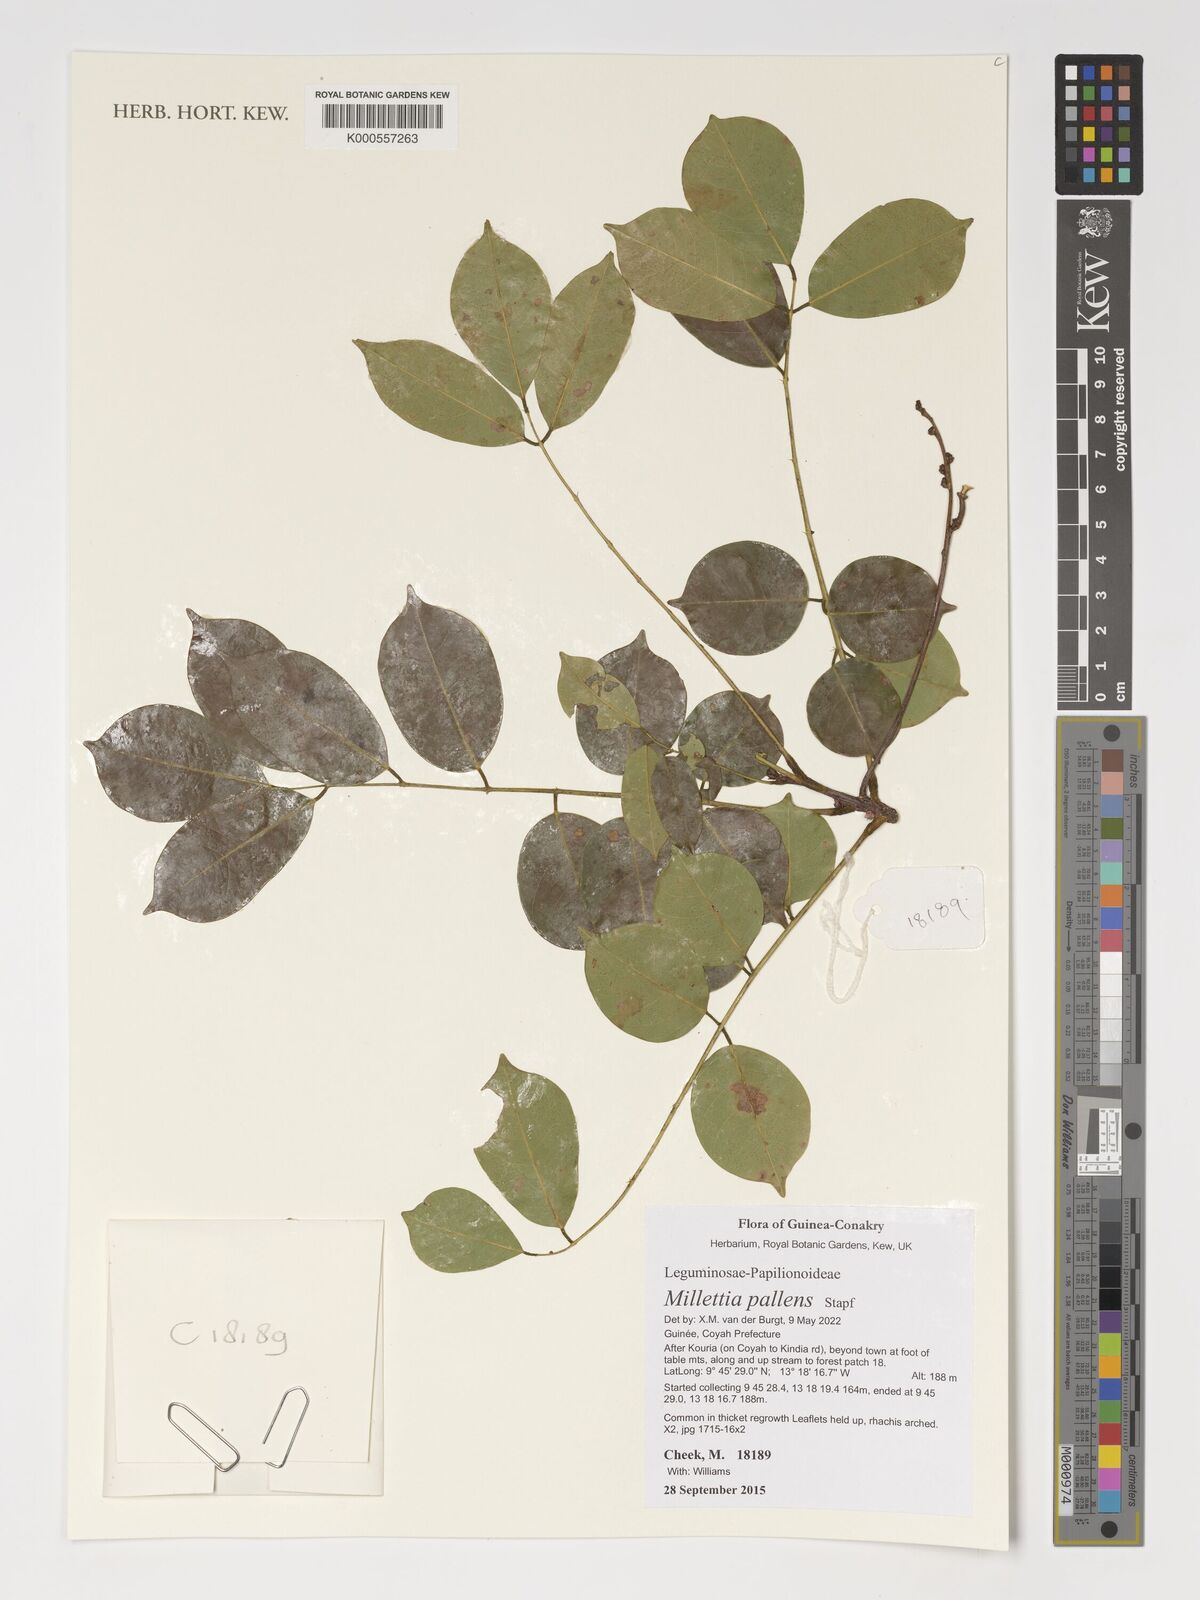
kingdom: Plantae
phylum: Tracheophyta
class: Magnoliopsida
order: Fabales
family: Fabaceae
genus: Millettia
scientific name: Millettia pallens
